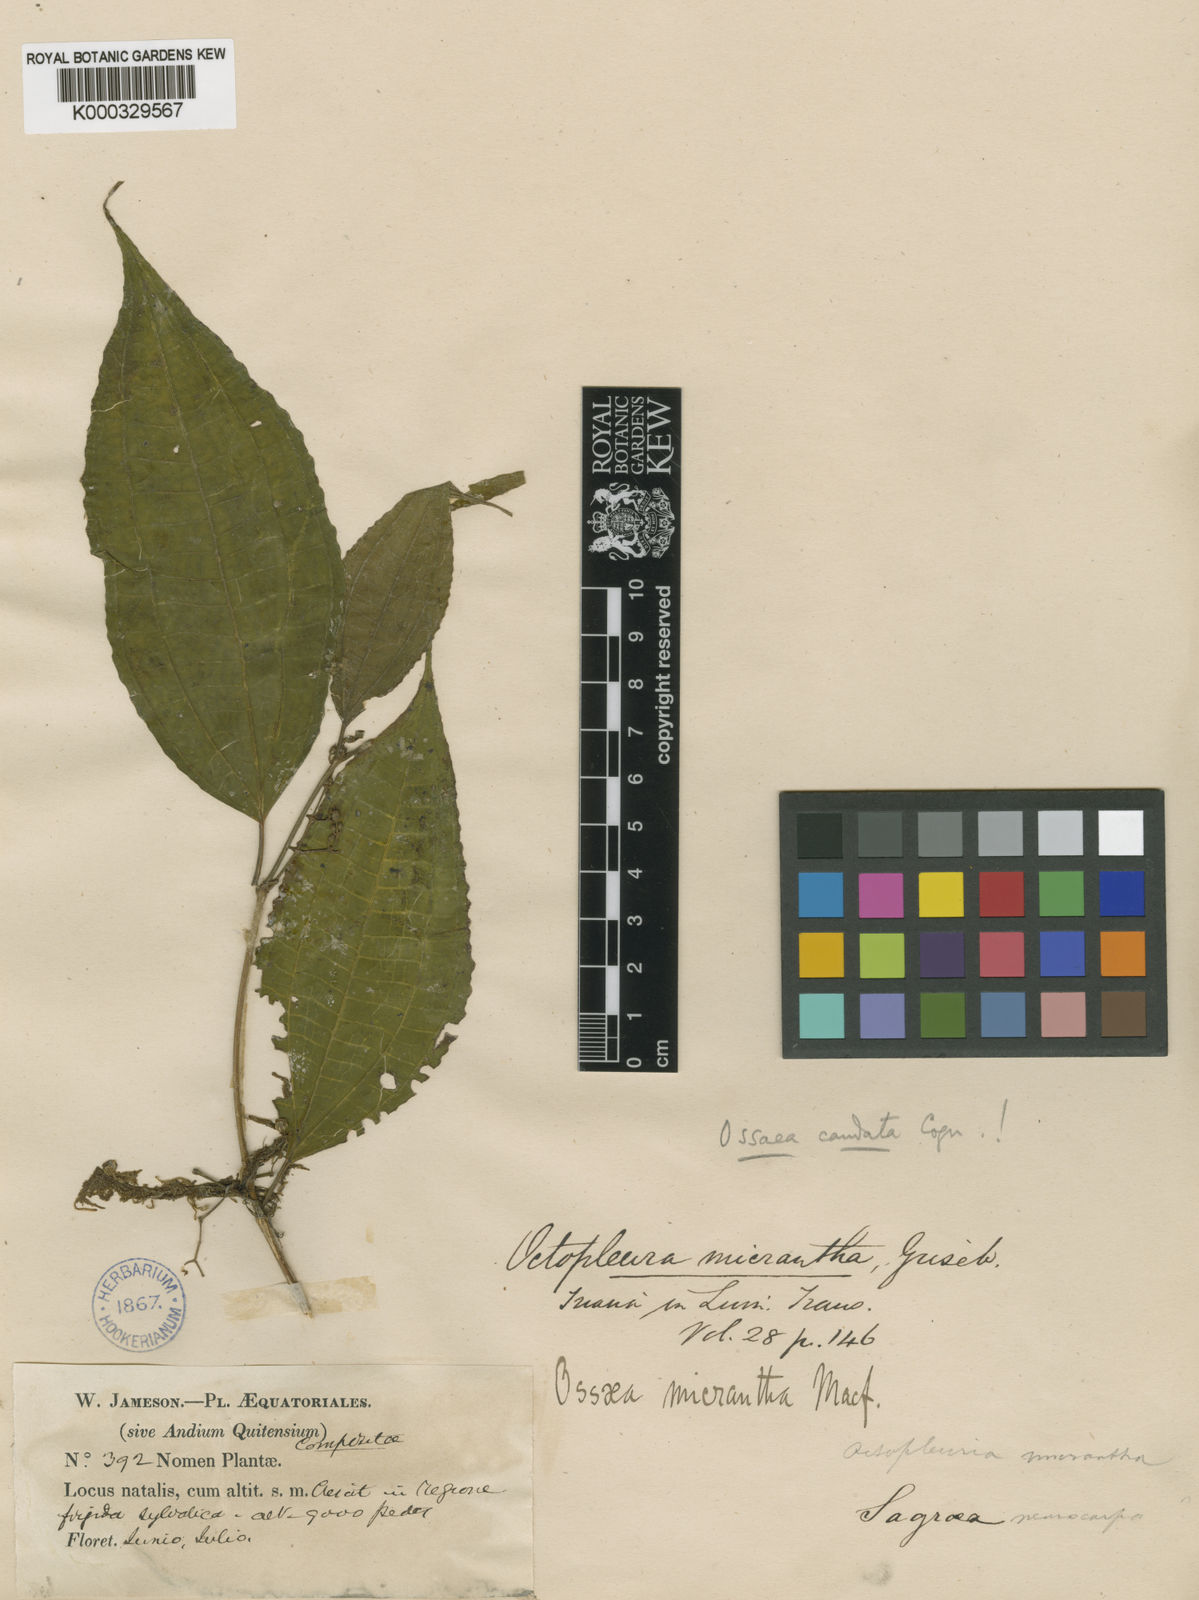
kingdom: Plantae
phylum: Tracheophyta
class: Magnoliopsida
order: Myrtales
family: Melastomataceae
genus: Miconia
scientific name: Miconia rubescens
